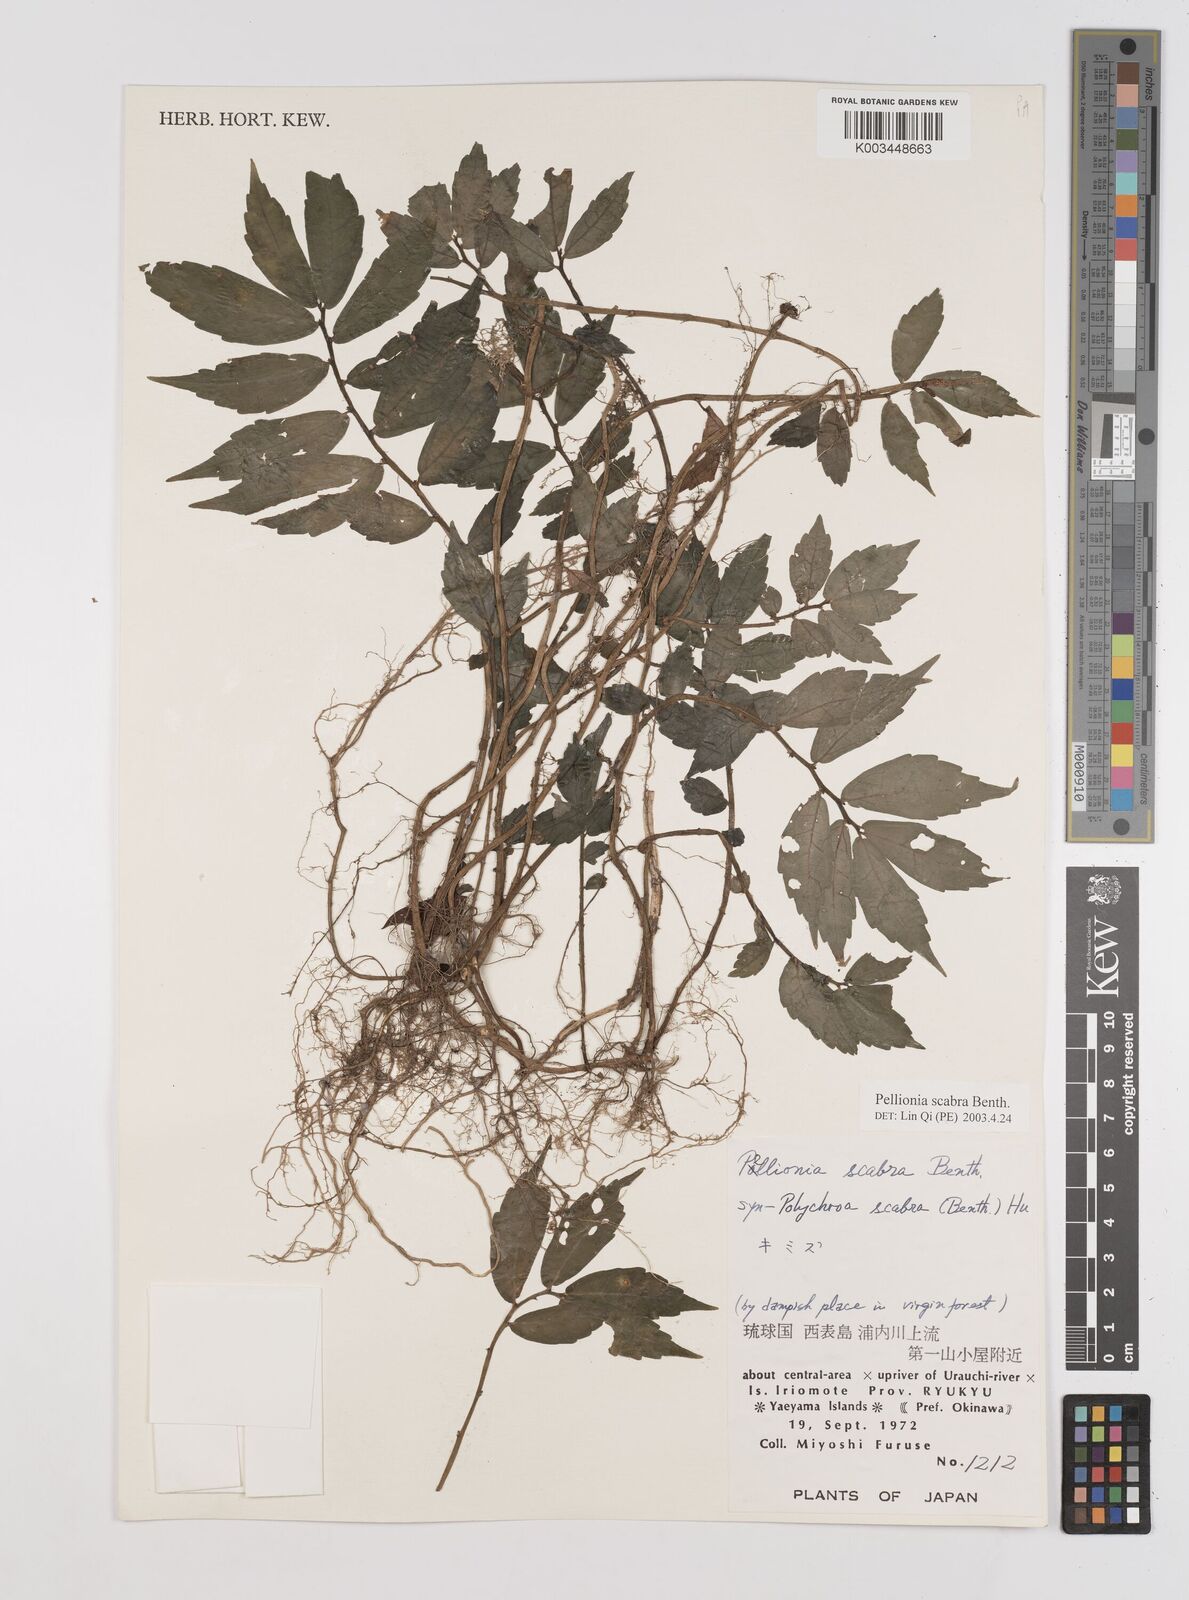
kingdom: Plantae
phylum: Tracheophyta
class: Magnoliopsida
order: Rosales
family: Urticaceae
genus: Elatostema
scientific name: Elatostema
